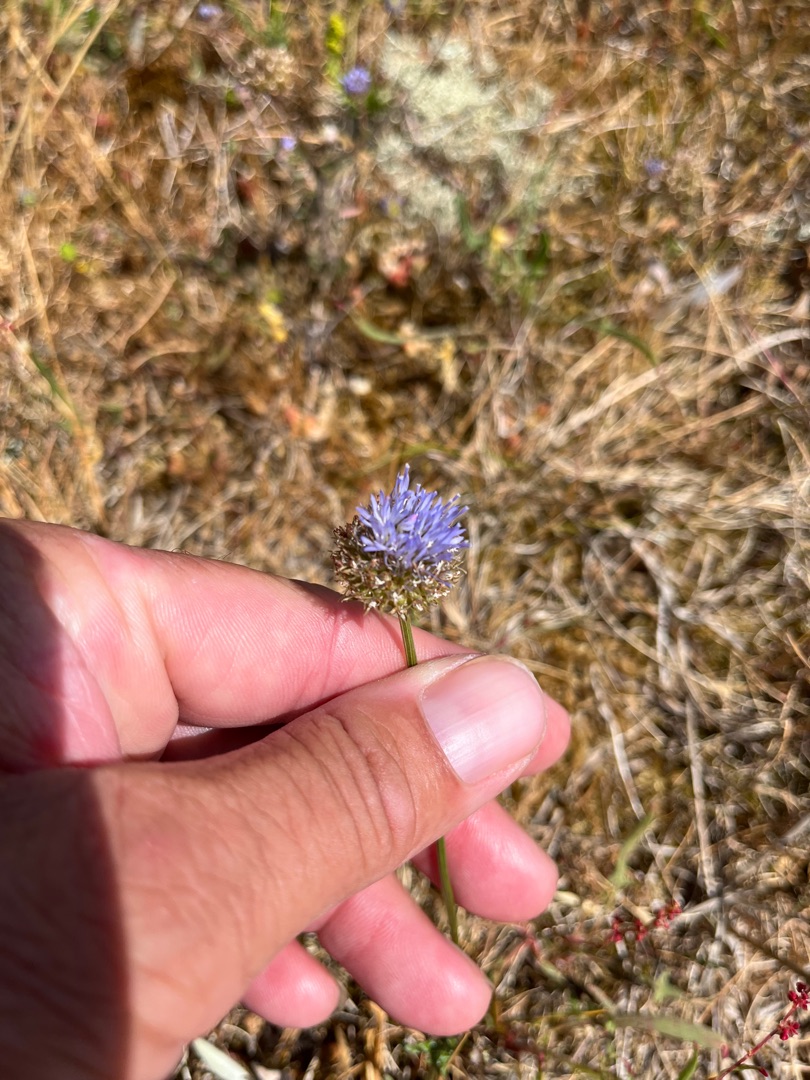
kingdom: Plantae
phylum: Tracheophyta
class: Magnoliopsida
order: Asterales
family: Campanulaceae
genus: Jasione
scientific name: Jasione montana
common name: Blåmunke
